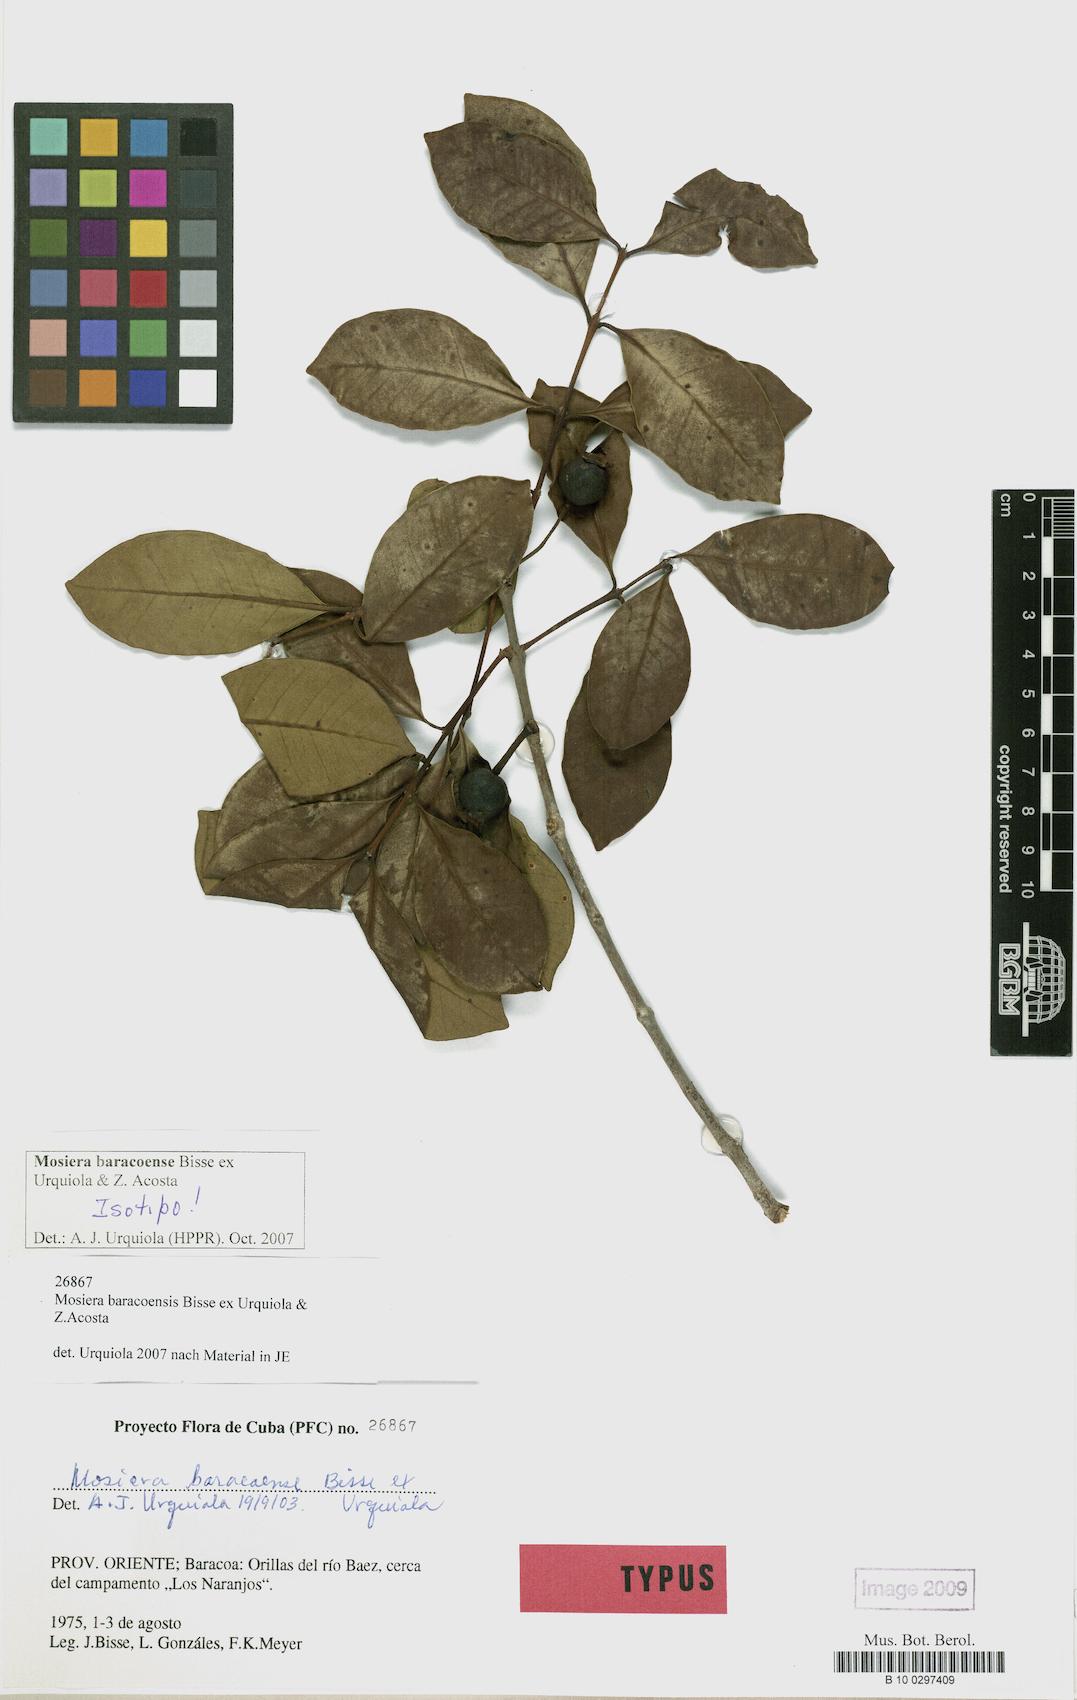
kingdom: Plantae
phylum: Tracheophyta
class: Magnoliopsida
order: Myrtales
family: Myrtaceae
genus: Mosiera
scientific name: Mosiera baracoensis
